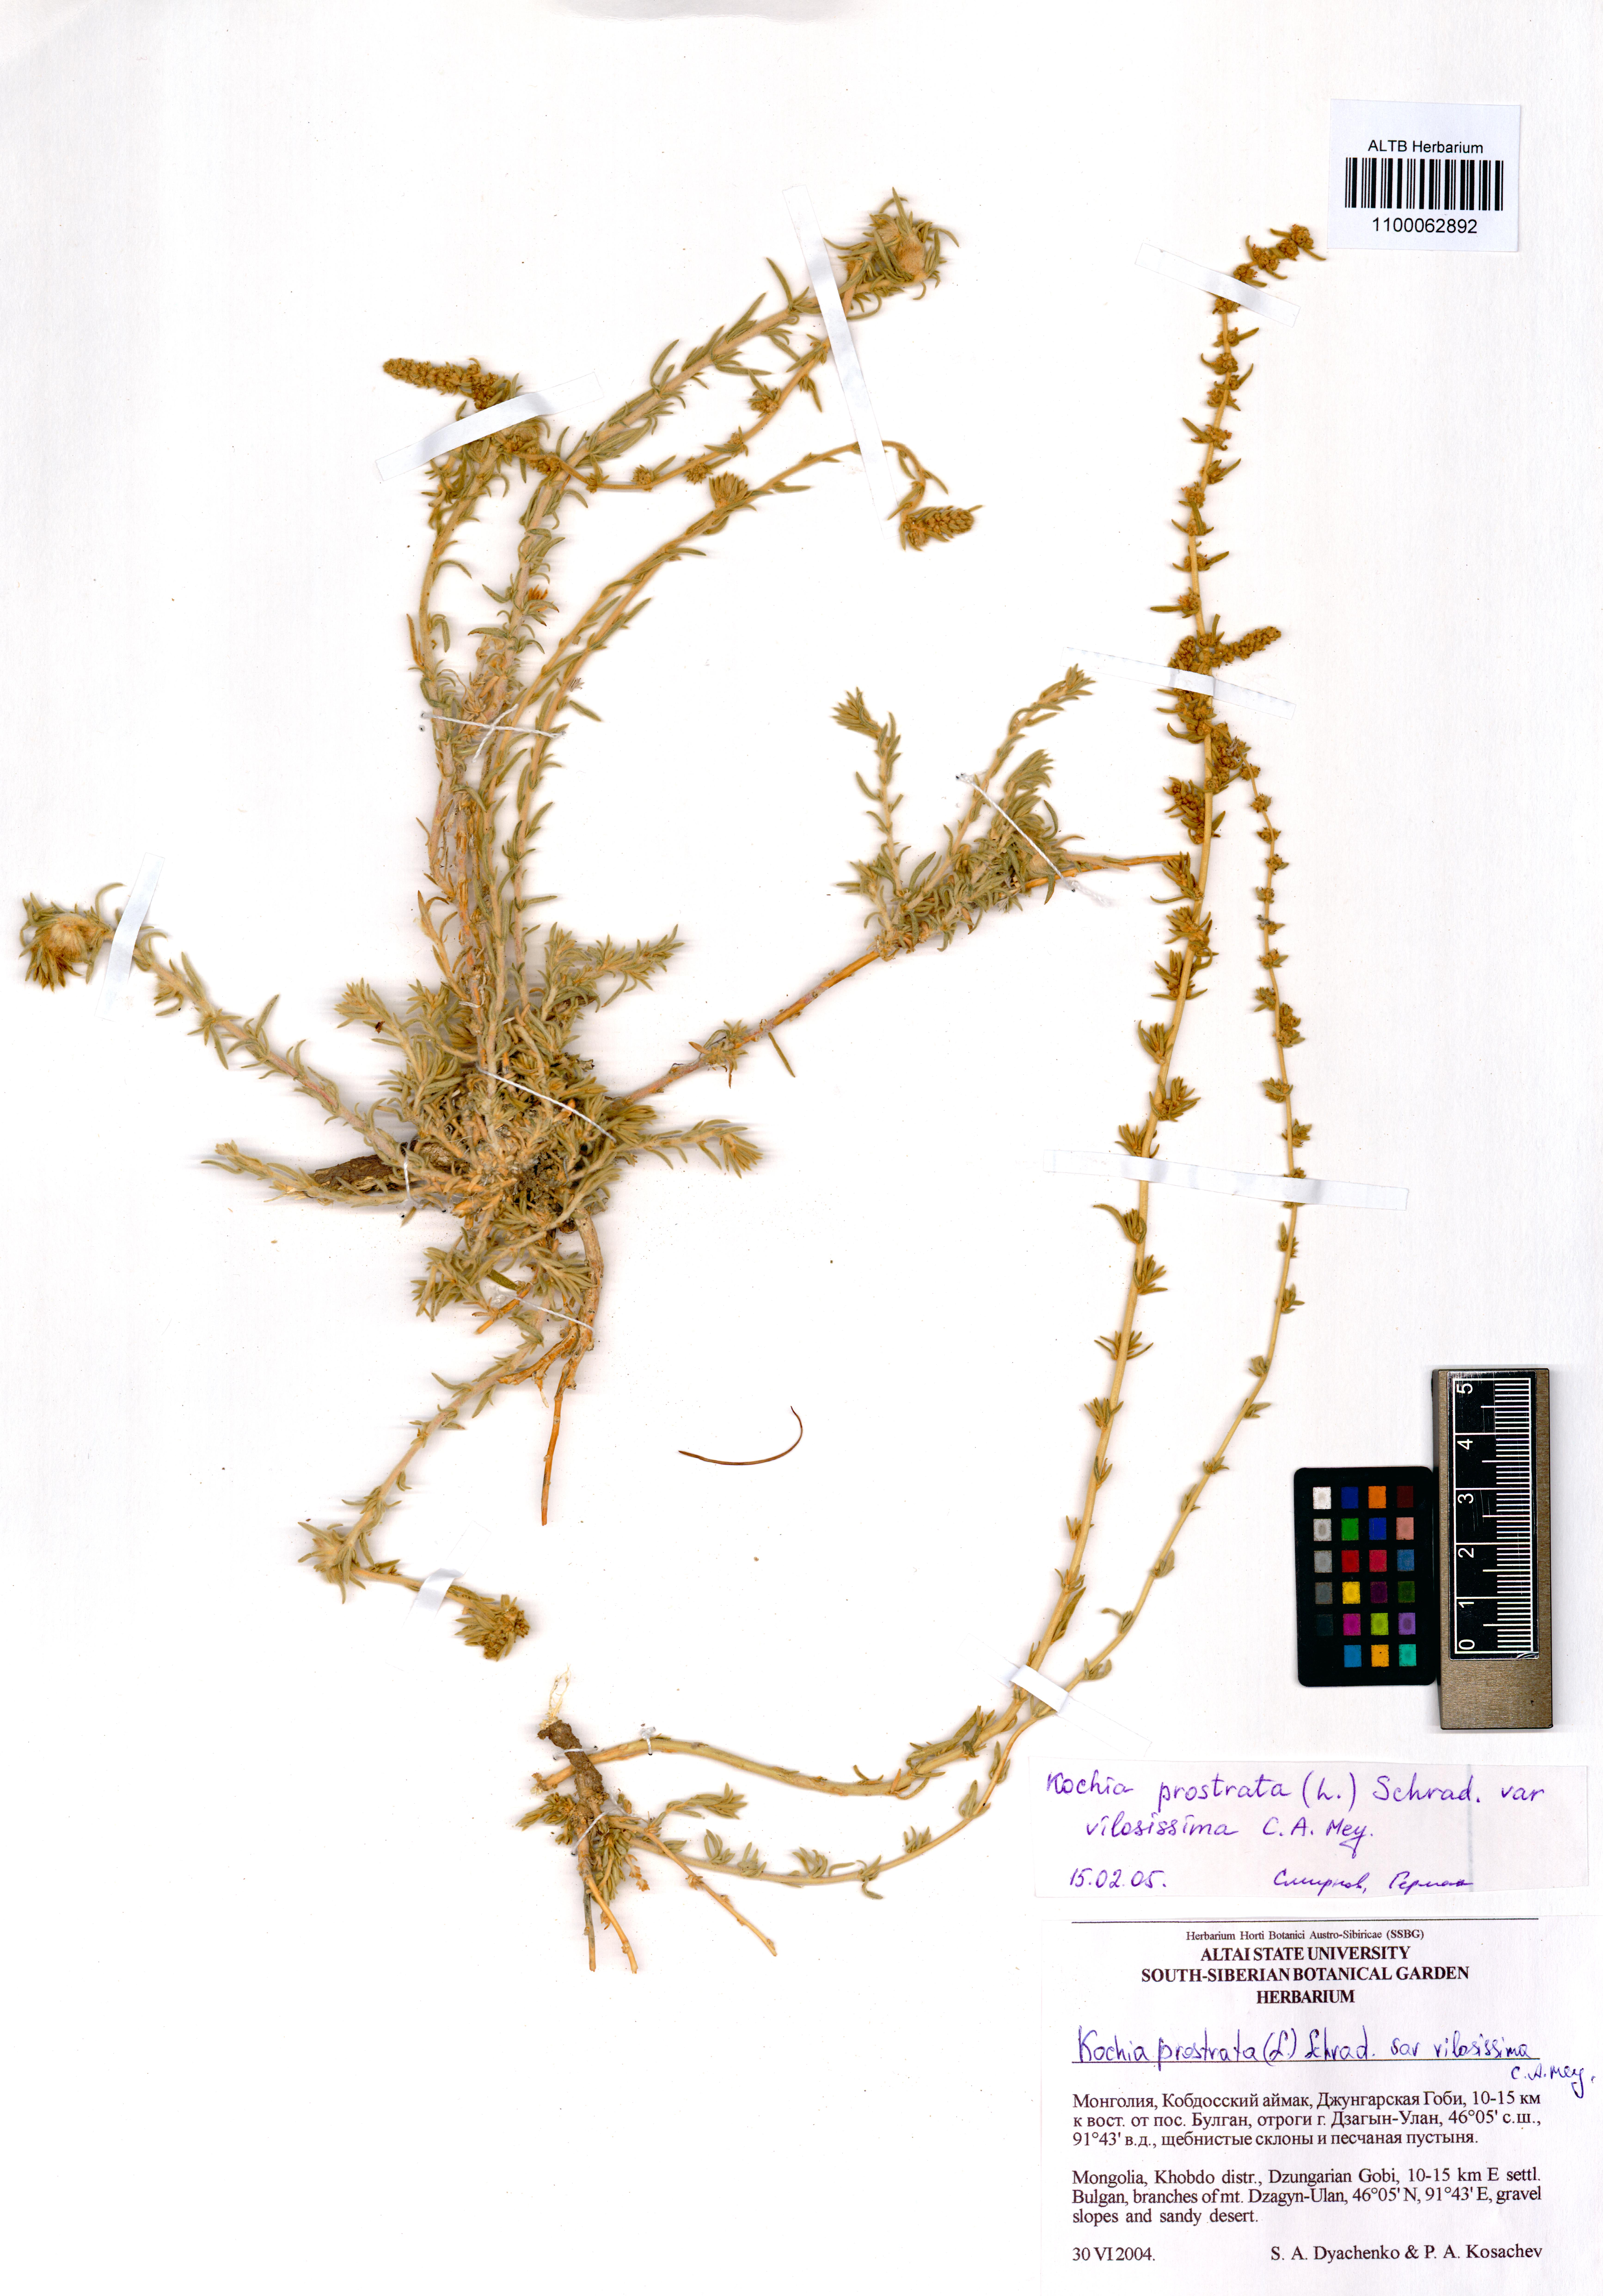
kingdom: Plantae
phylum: Tracheophyta
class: Magnoliopsida
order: Caryophyllales
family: Amaranthaceae
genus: Bassia
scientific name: Bassia villosissima
